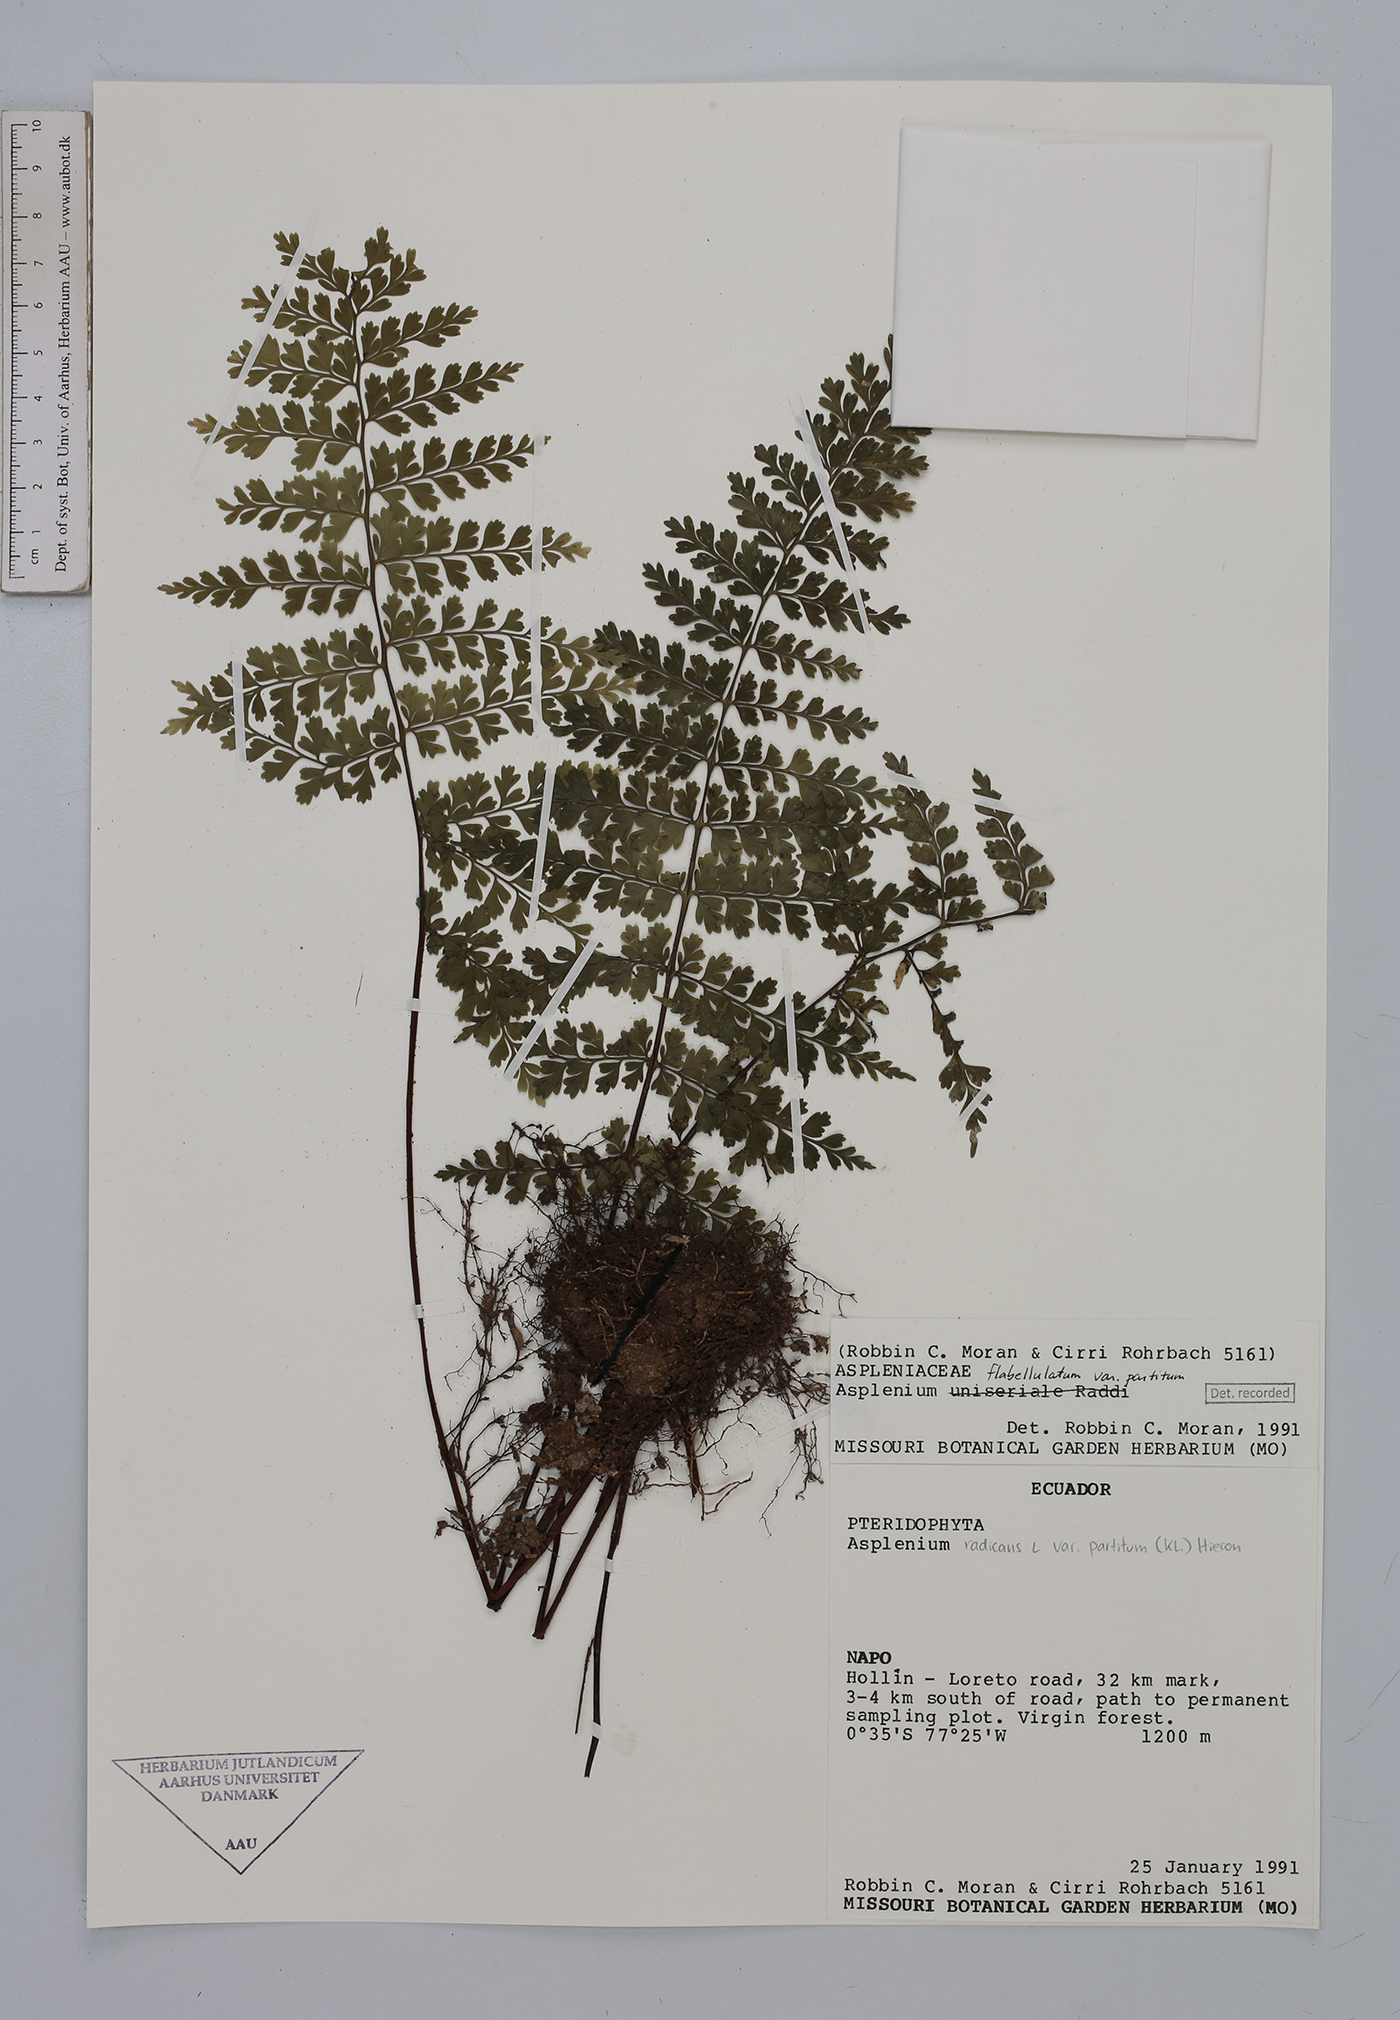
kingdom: Plantae
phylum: Tracheophyta
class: Polypodiopsida
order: Polypodiales
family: Aspleniaceae
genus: Asplenium
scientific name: Asplenium flabellulatum
